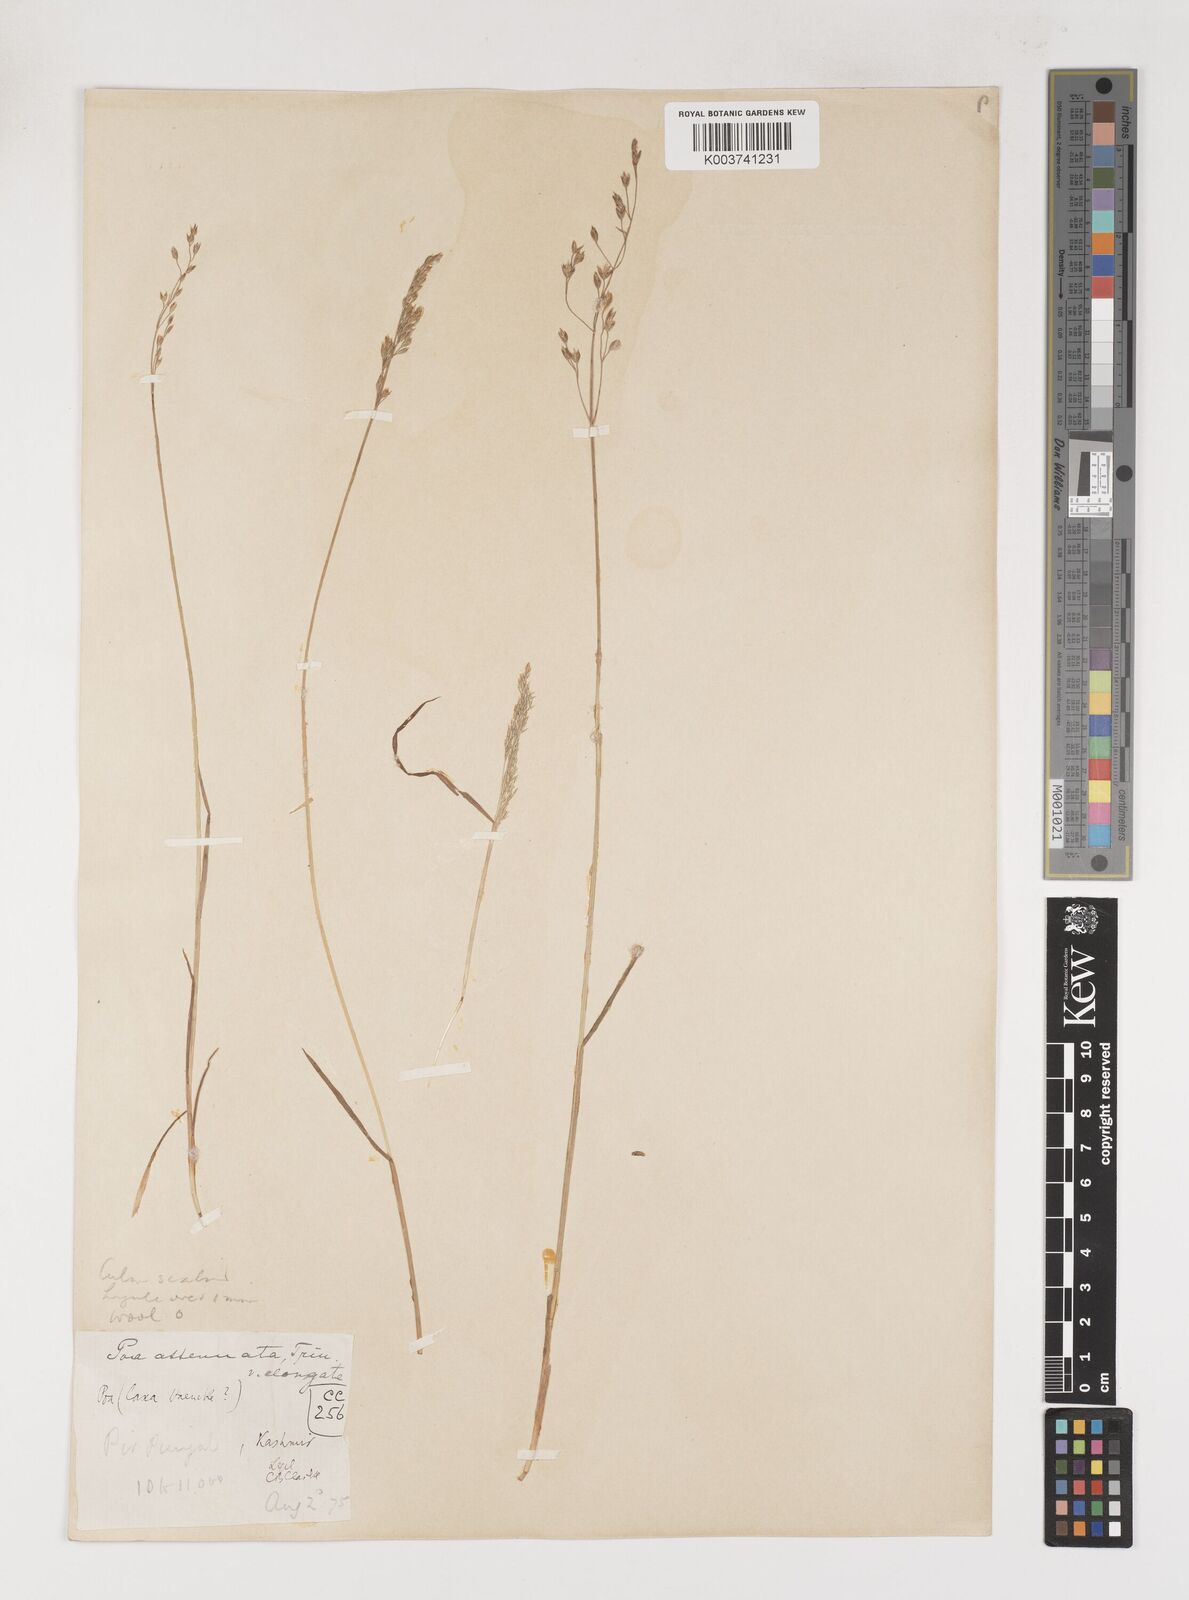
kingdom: Plantae
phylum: Tracheophyta
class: Liliopsida
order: Poales
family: Poaceae
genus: Poa
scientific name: Poa araratica
